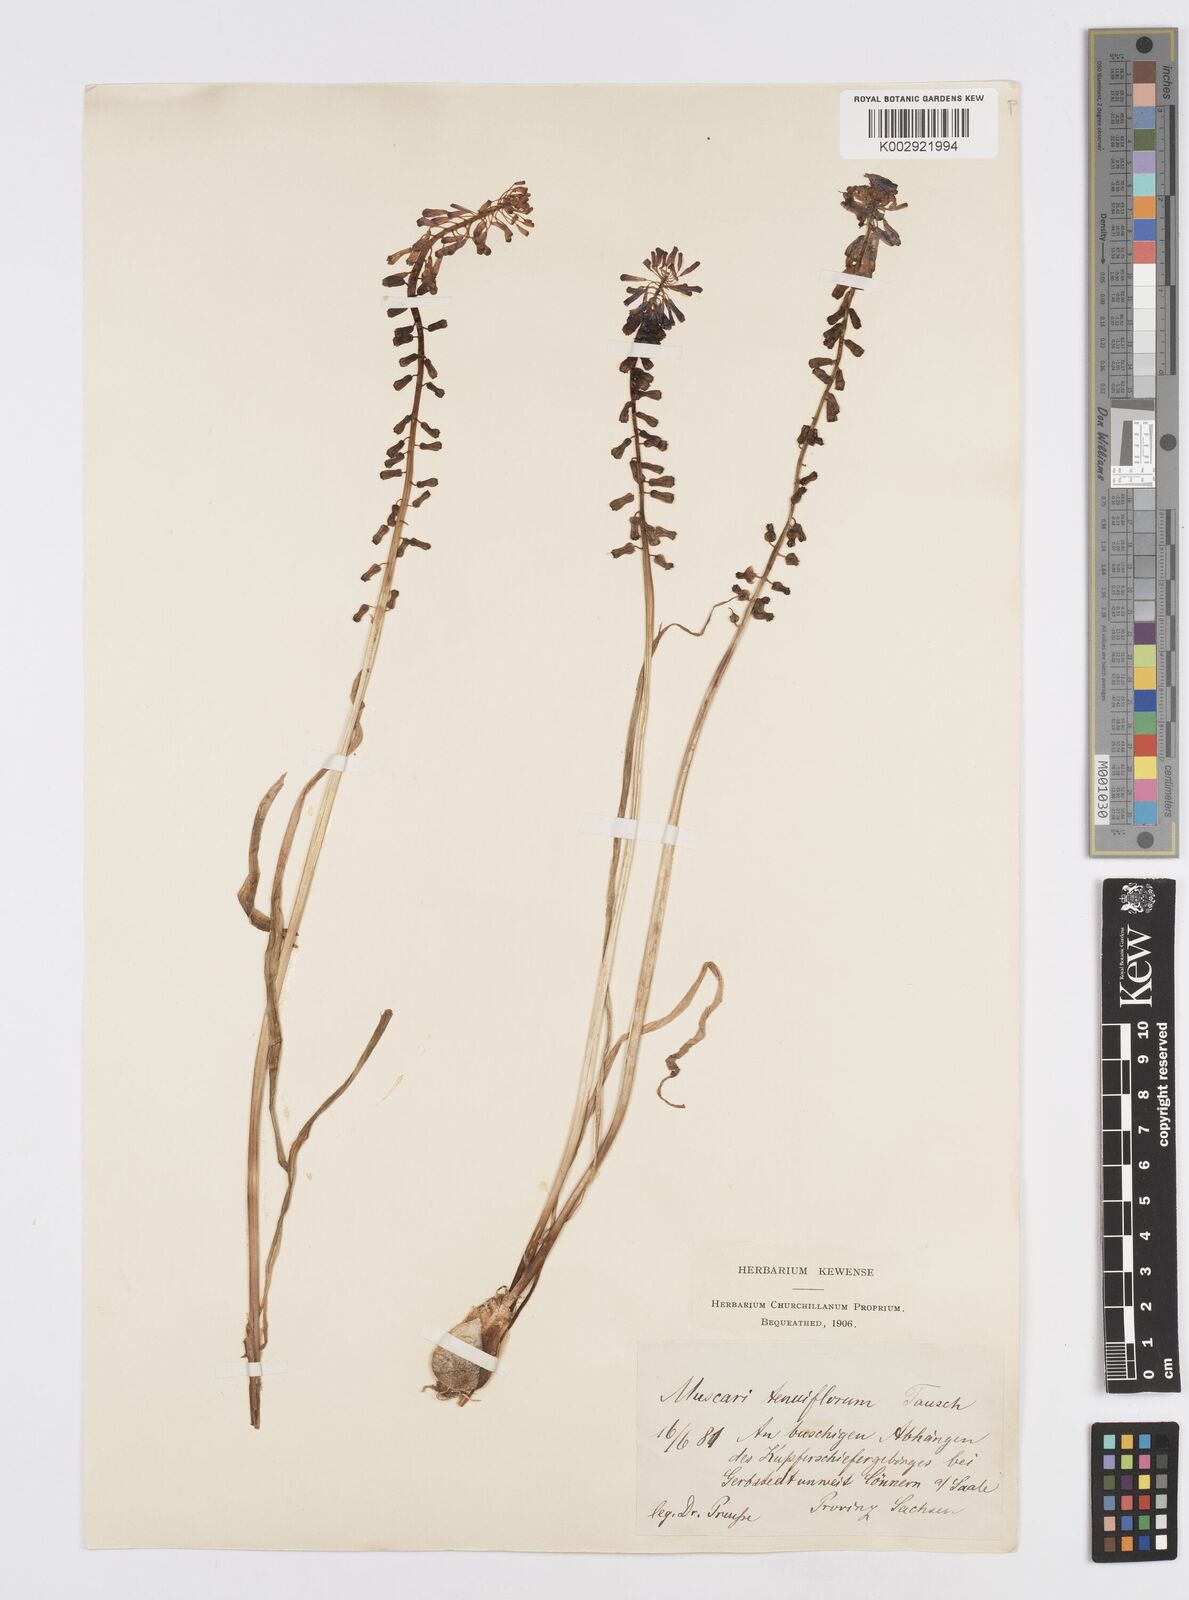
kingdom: Plantae
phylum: Tracheophyta
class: Liliopsida
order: Asparagales
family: Asparagaceae
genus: Muscari
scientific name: Muscari tenuiflorum
